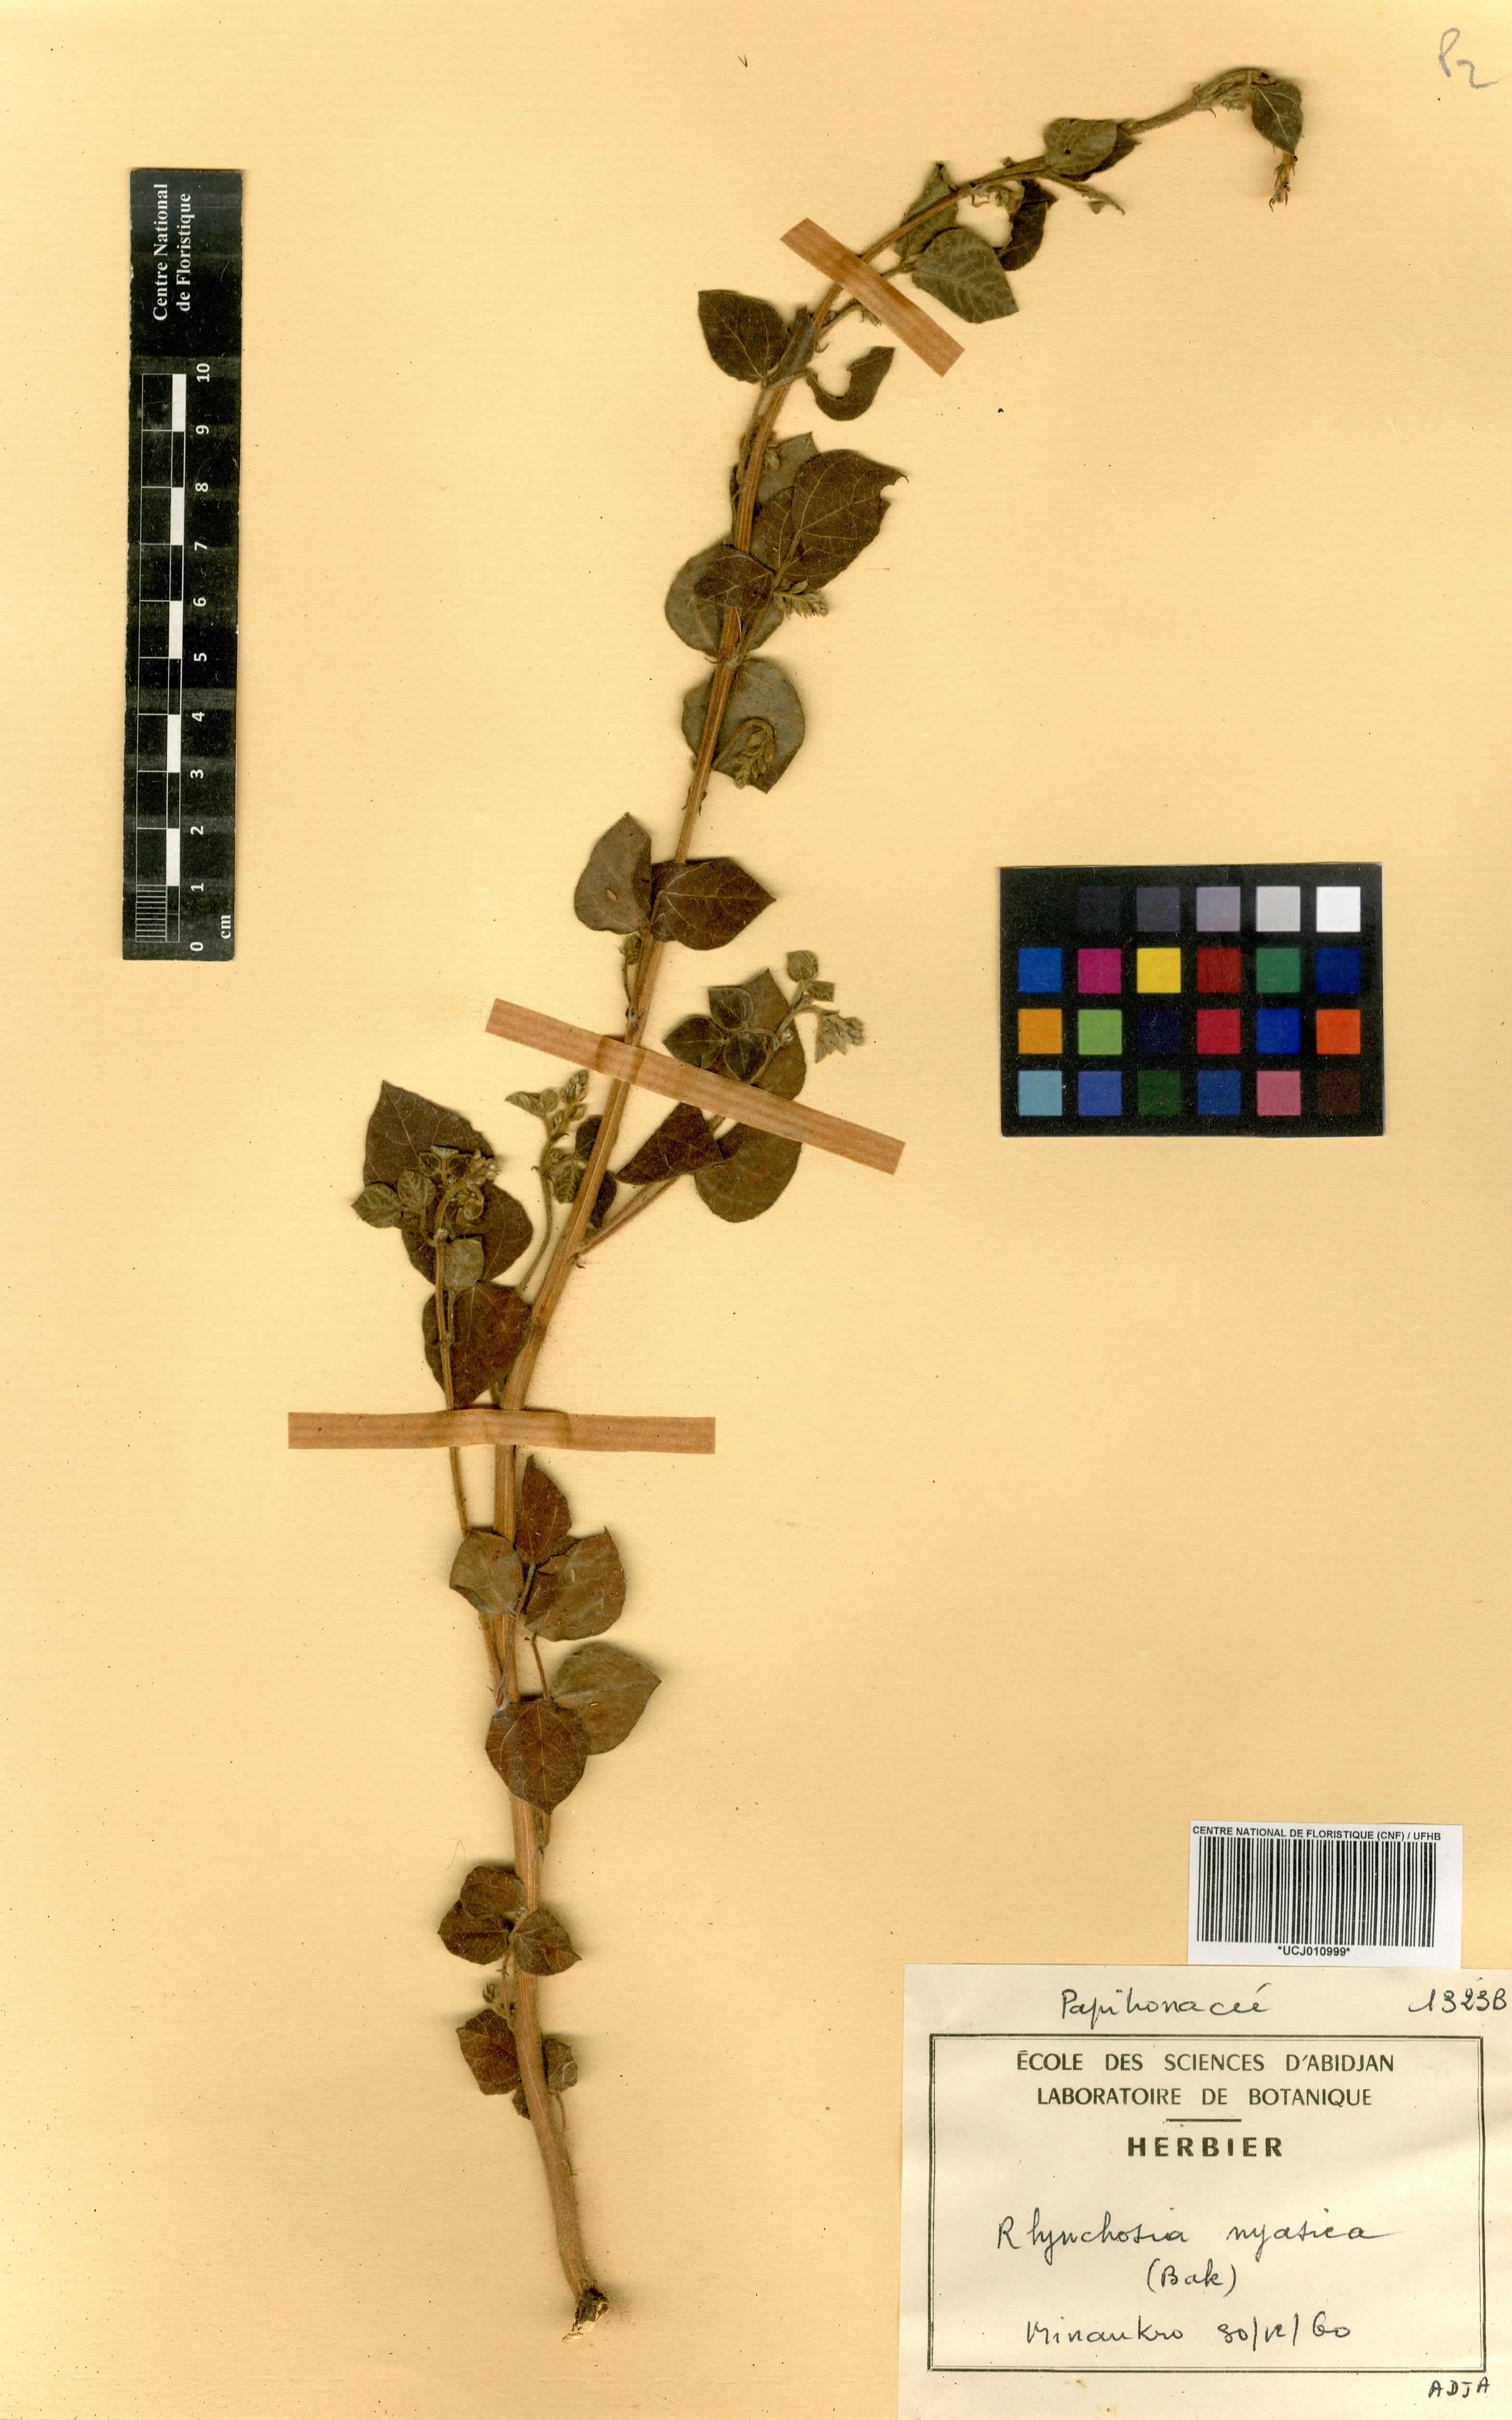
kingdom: Plantae
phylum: Tracheophyta
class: Magnoliopsida
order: Fabales
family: Fabaceae
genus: Rhynchosia
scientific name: Rhynchosia nyasica
